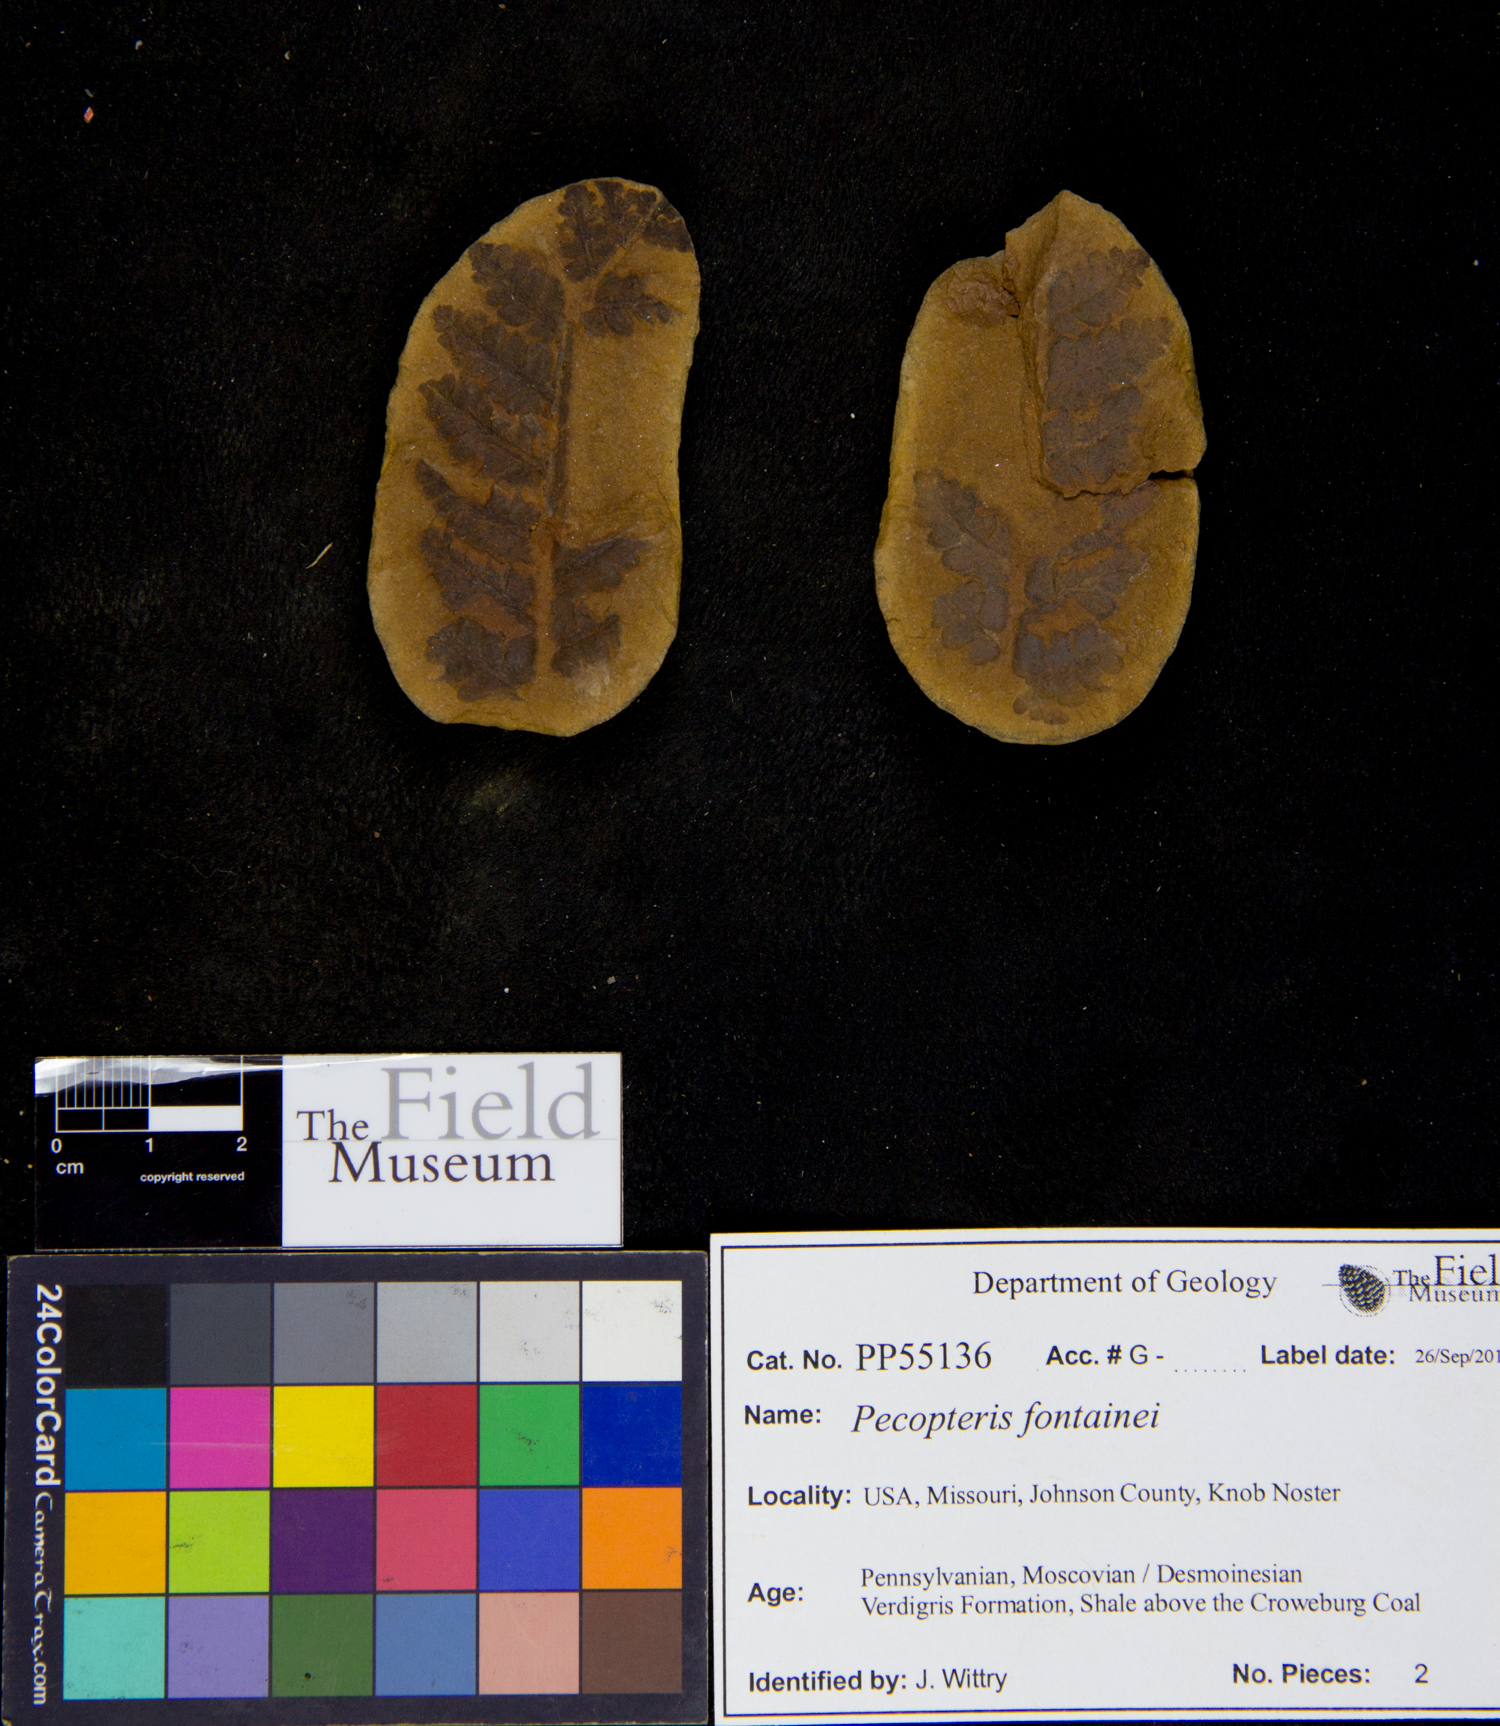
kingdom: Plantae
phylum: Tracheophyta
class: Polypodiopsida
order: Marattiales
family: Asterothecaceae
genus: Pecopteris
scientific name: Pecopteris
